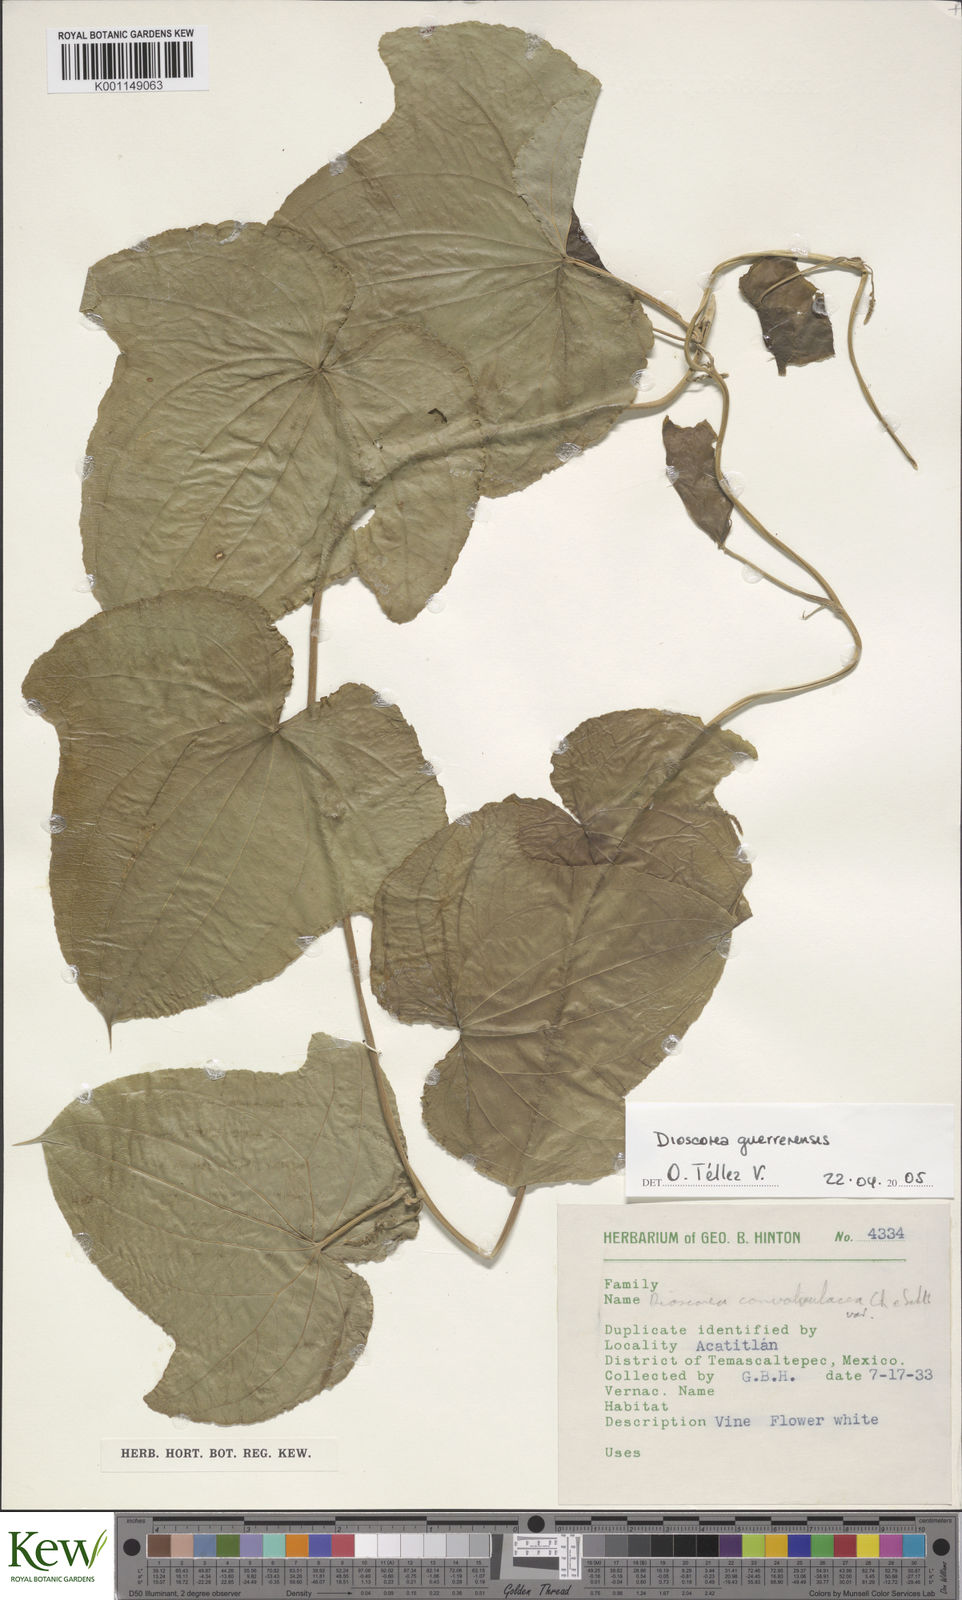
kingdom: Plantae
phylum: Tracheophyta
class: Liliopsida
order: Dioscoreales
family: Dioscoreaceae
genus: Dioscorea
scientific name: Dioscorea guerrerensis
